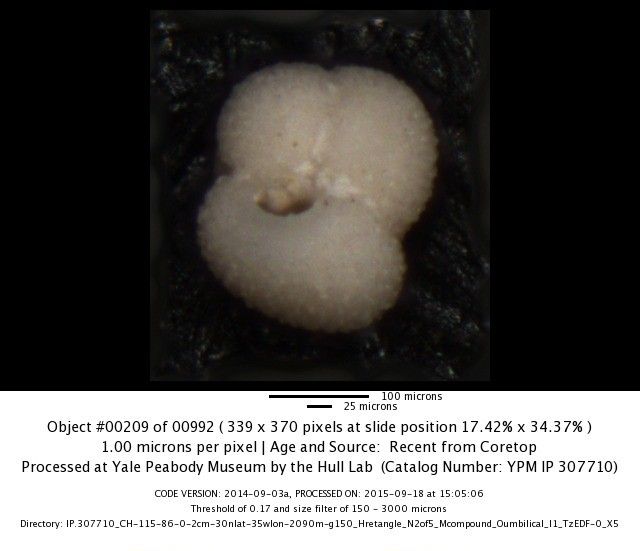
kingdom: Chromista
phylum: Foraminifera
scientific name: Foraminifera
